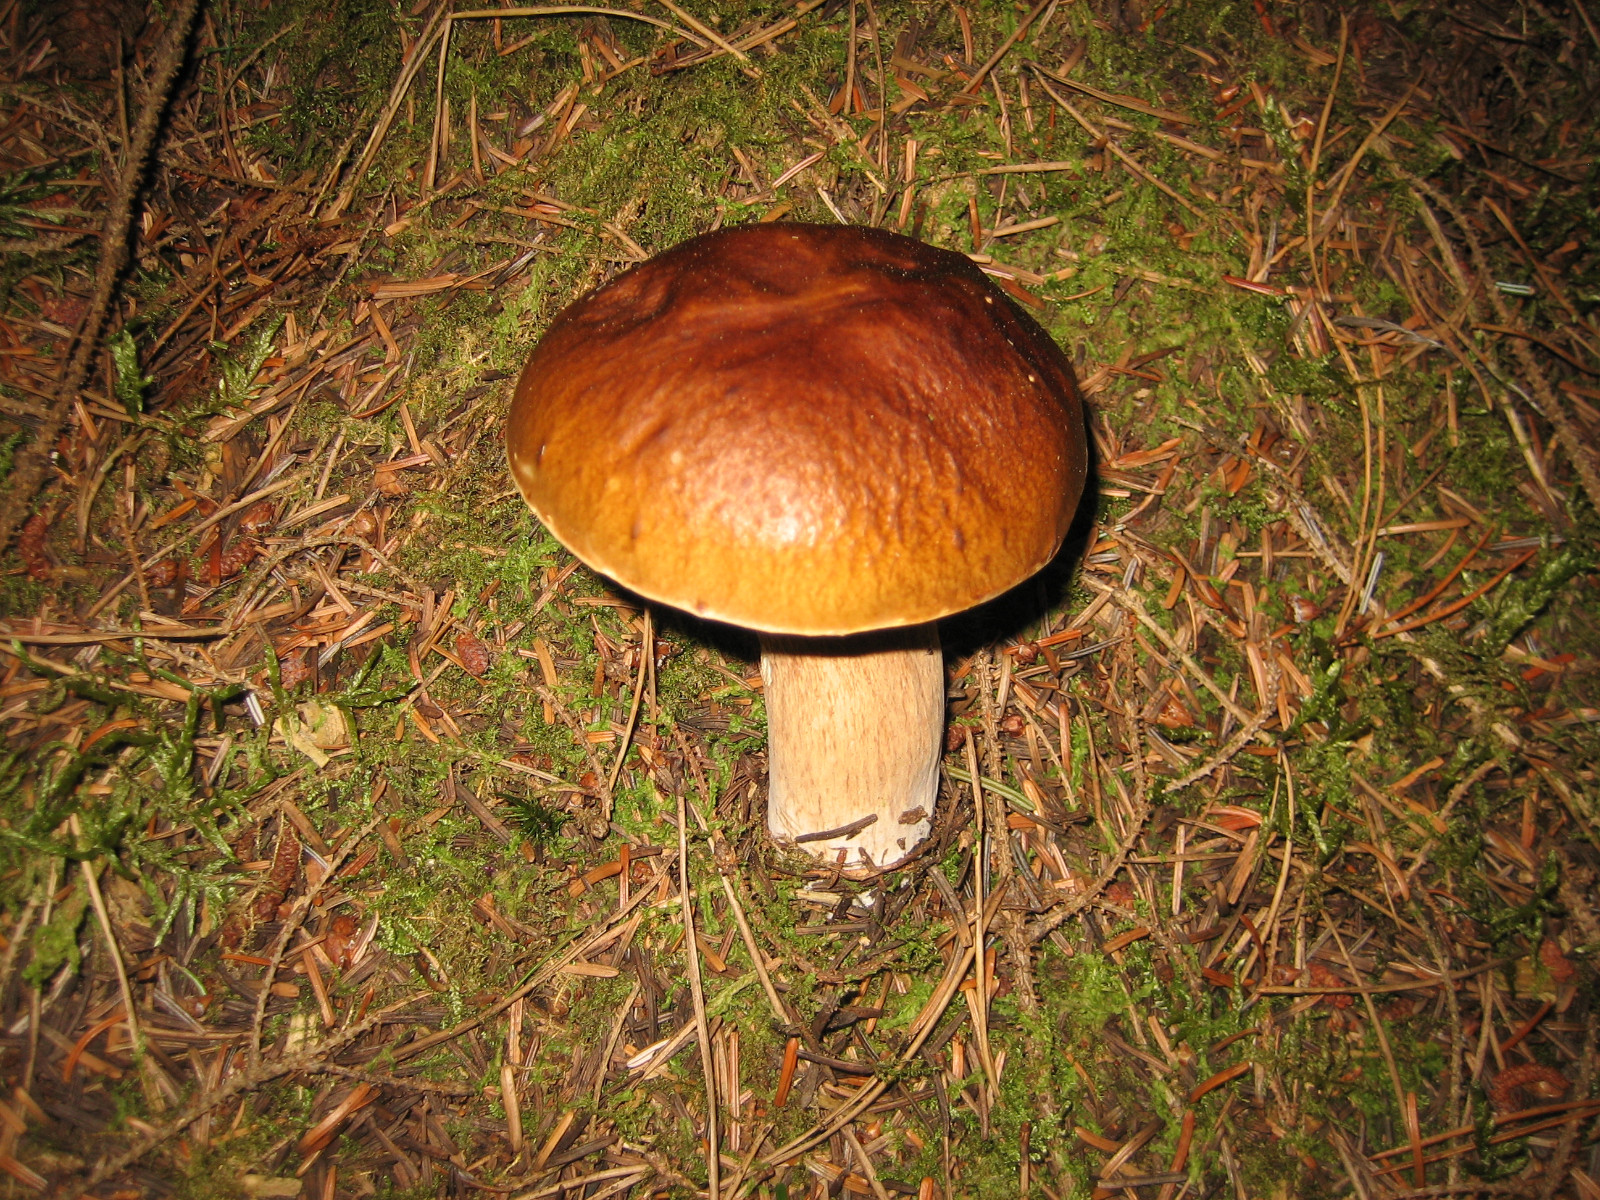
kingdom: Fungi
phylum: Basidiomycota
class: Agaricomycetes
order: Boletales
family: Boletaceae
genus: Boletus
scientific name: Boletus edulis
